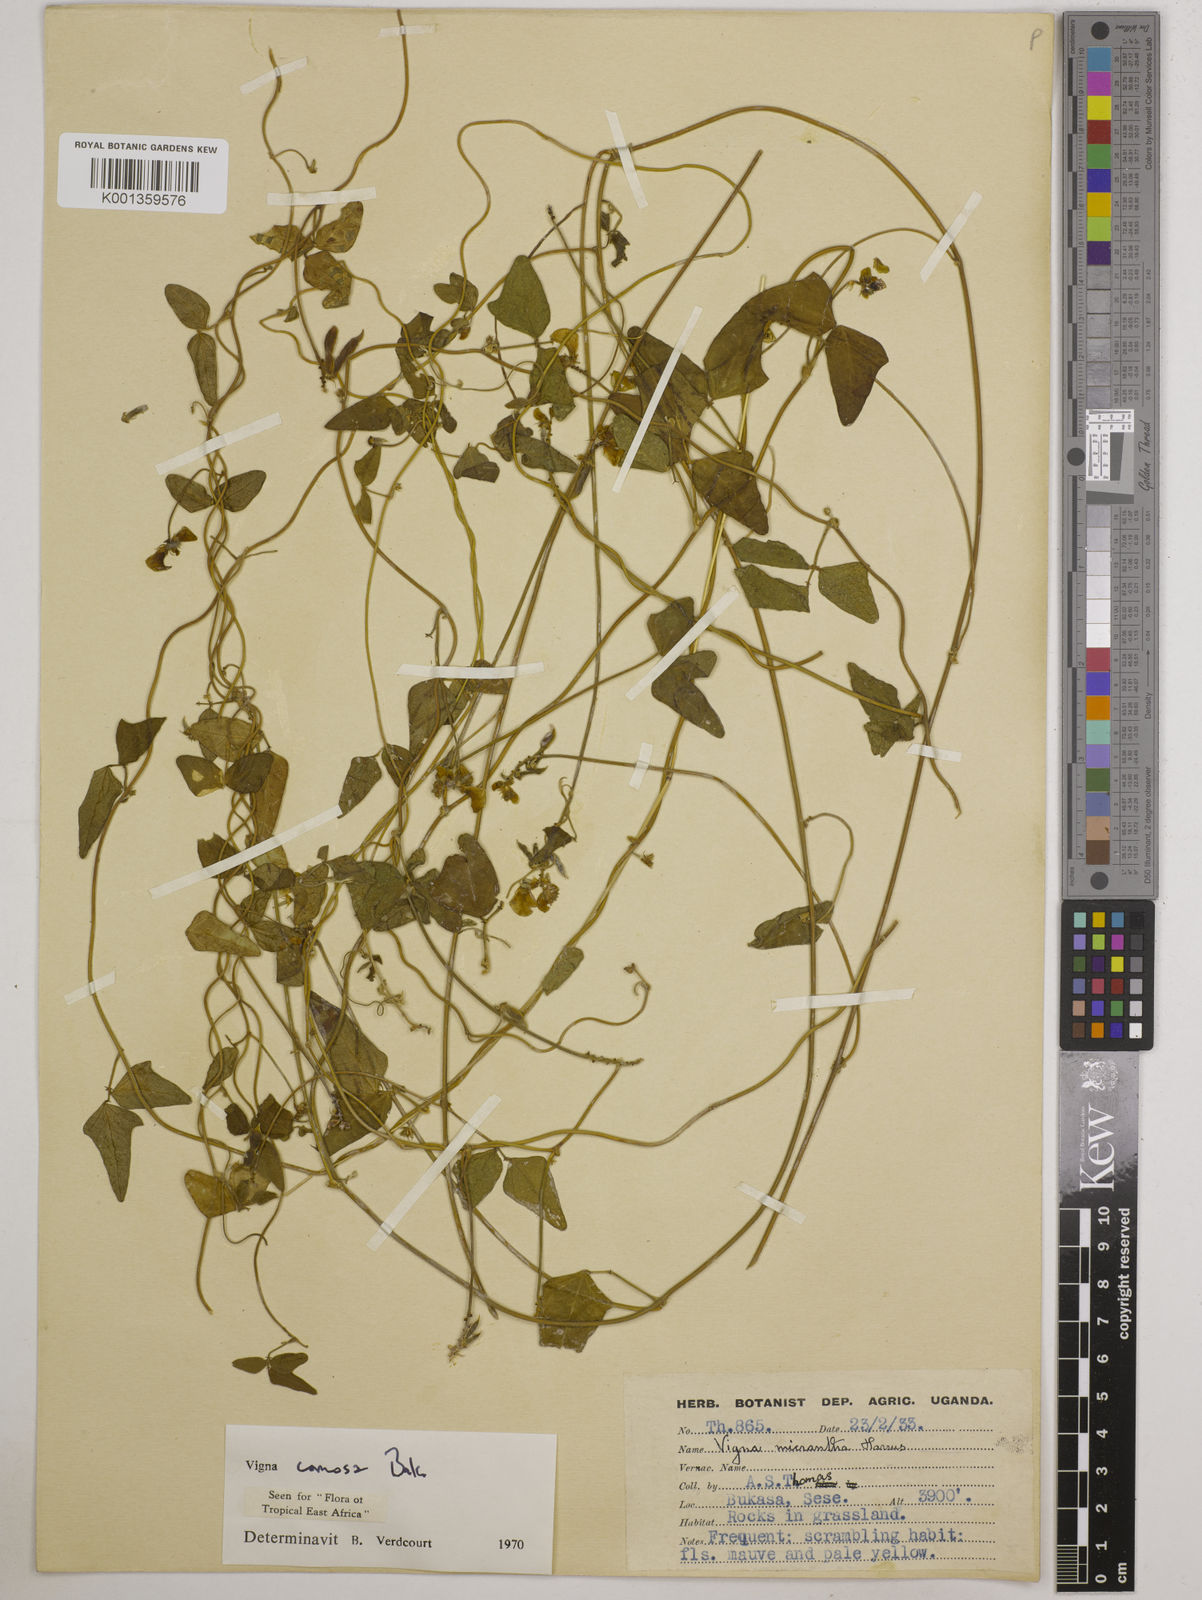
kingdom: Plantae
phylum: Tracheophyta
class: Magnoliopsida
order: Fabales
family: Fabaceae
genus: Vigna
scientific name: Vigna comosa
